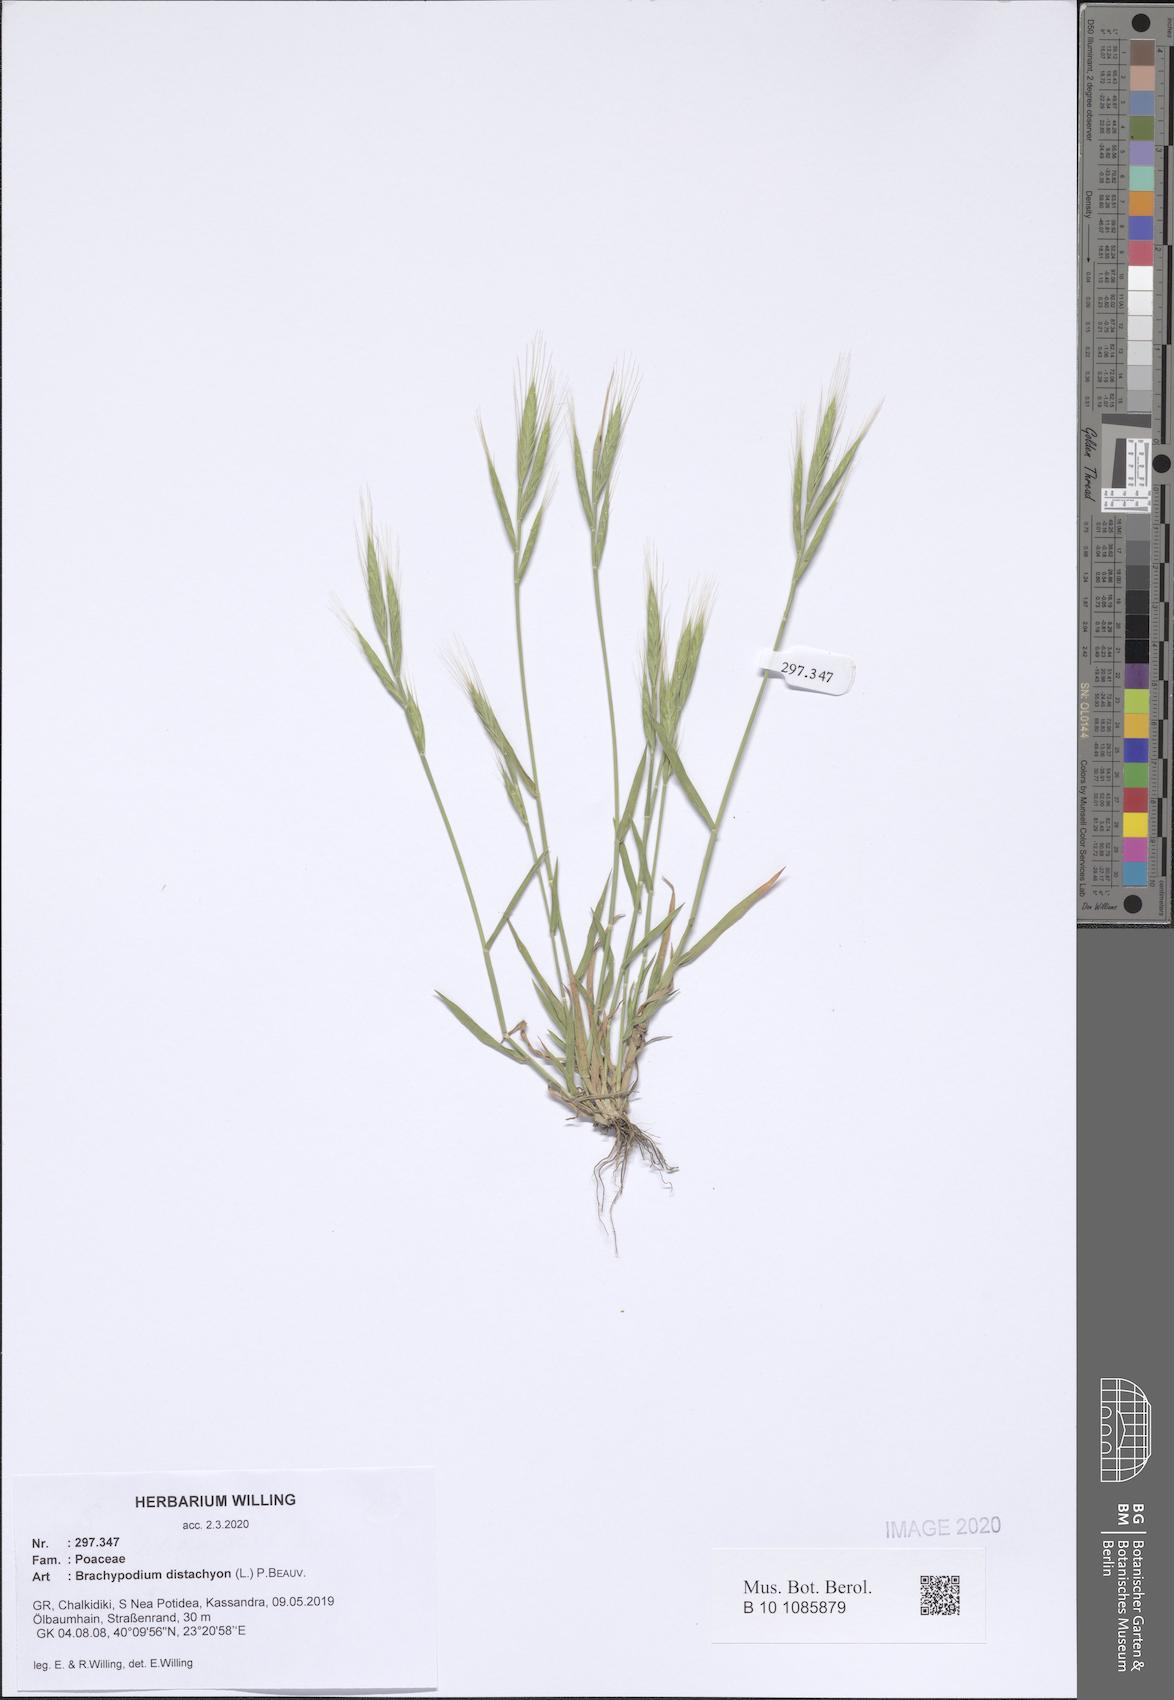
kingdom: Plantae
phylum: Tracheophyta
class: Liliopsida
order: Poales
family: Poaceae
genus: Brachypodium
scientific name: Brachypodium distachyon
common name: Stiff brome
